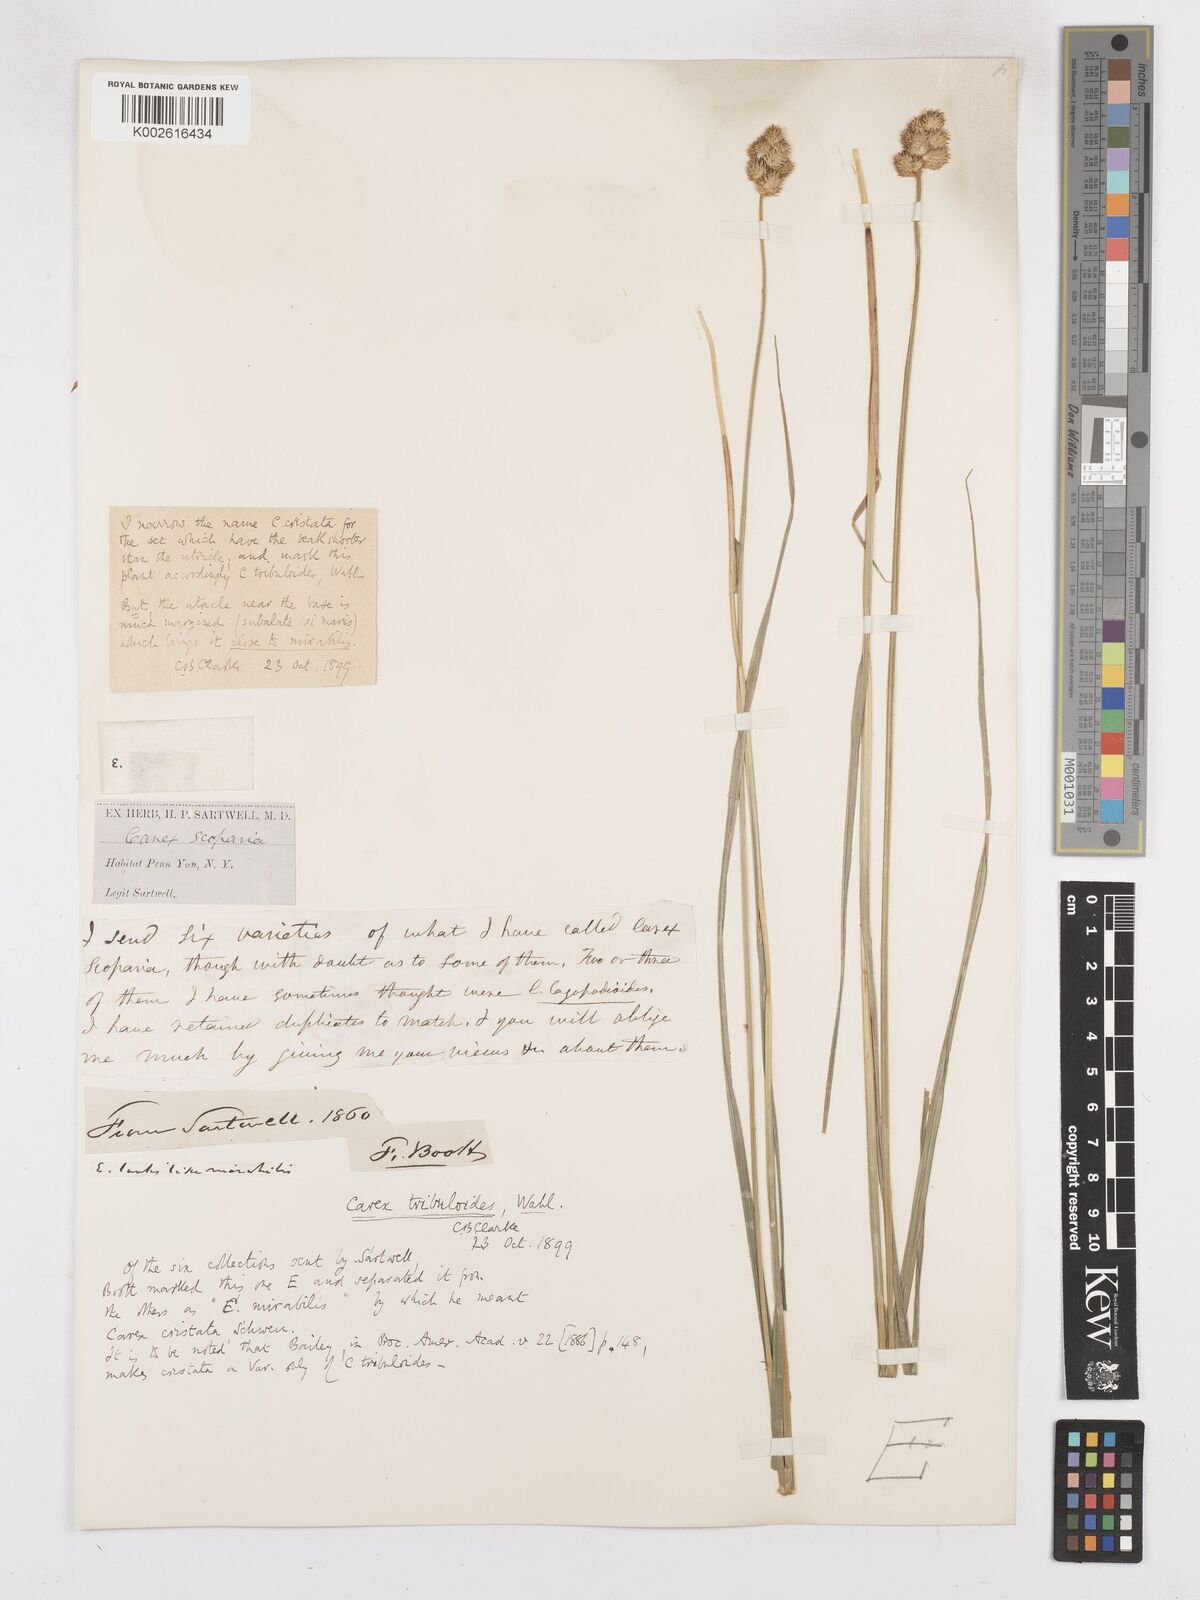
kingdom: Plantae
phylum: Tracheophyta
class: Liliopsida
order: Poales
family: Cyperaceae
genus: Carex
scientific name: Carex tribuloides
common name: Blunt broom sedge
